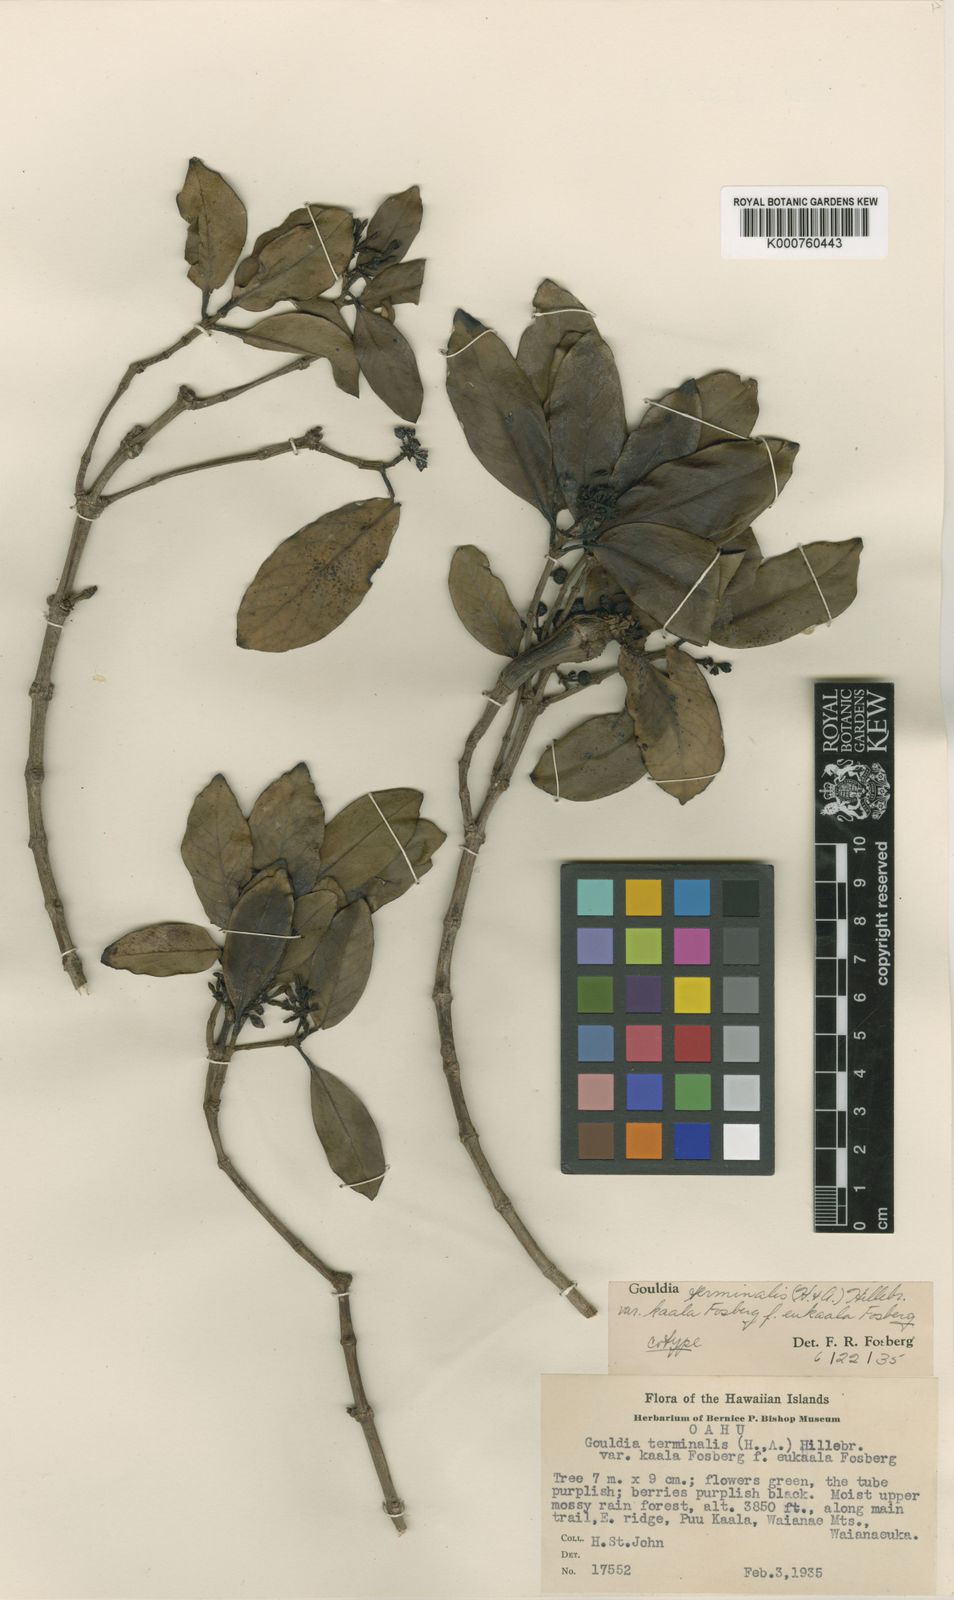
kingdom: Plantae
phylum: Tracheophyta
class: Magnoliopsida
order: Gentianales
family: Rubiaceae
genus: Kadua
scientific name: Kadua affinis
